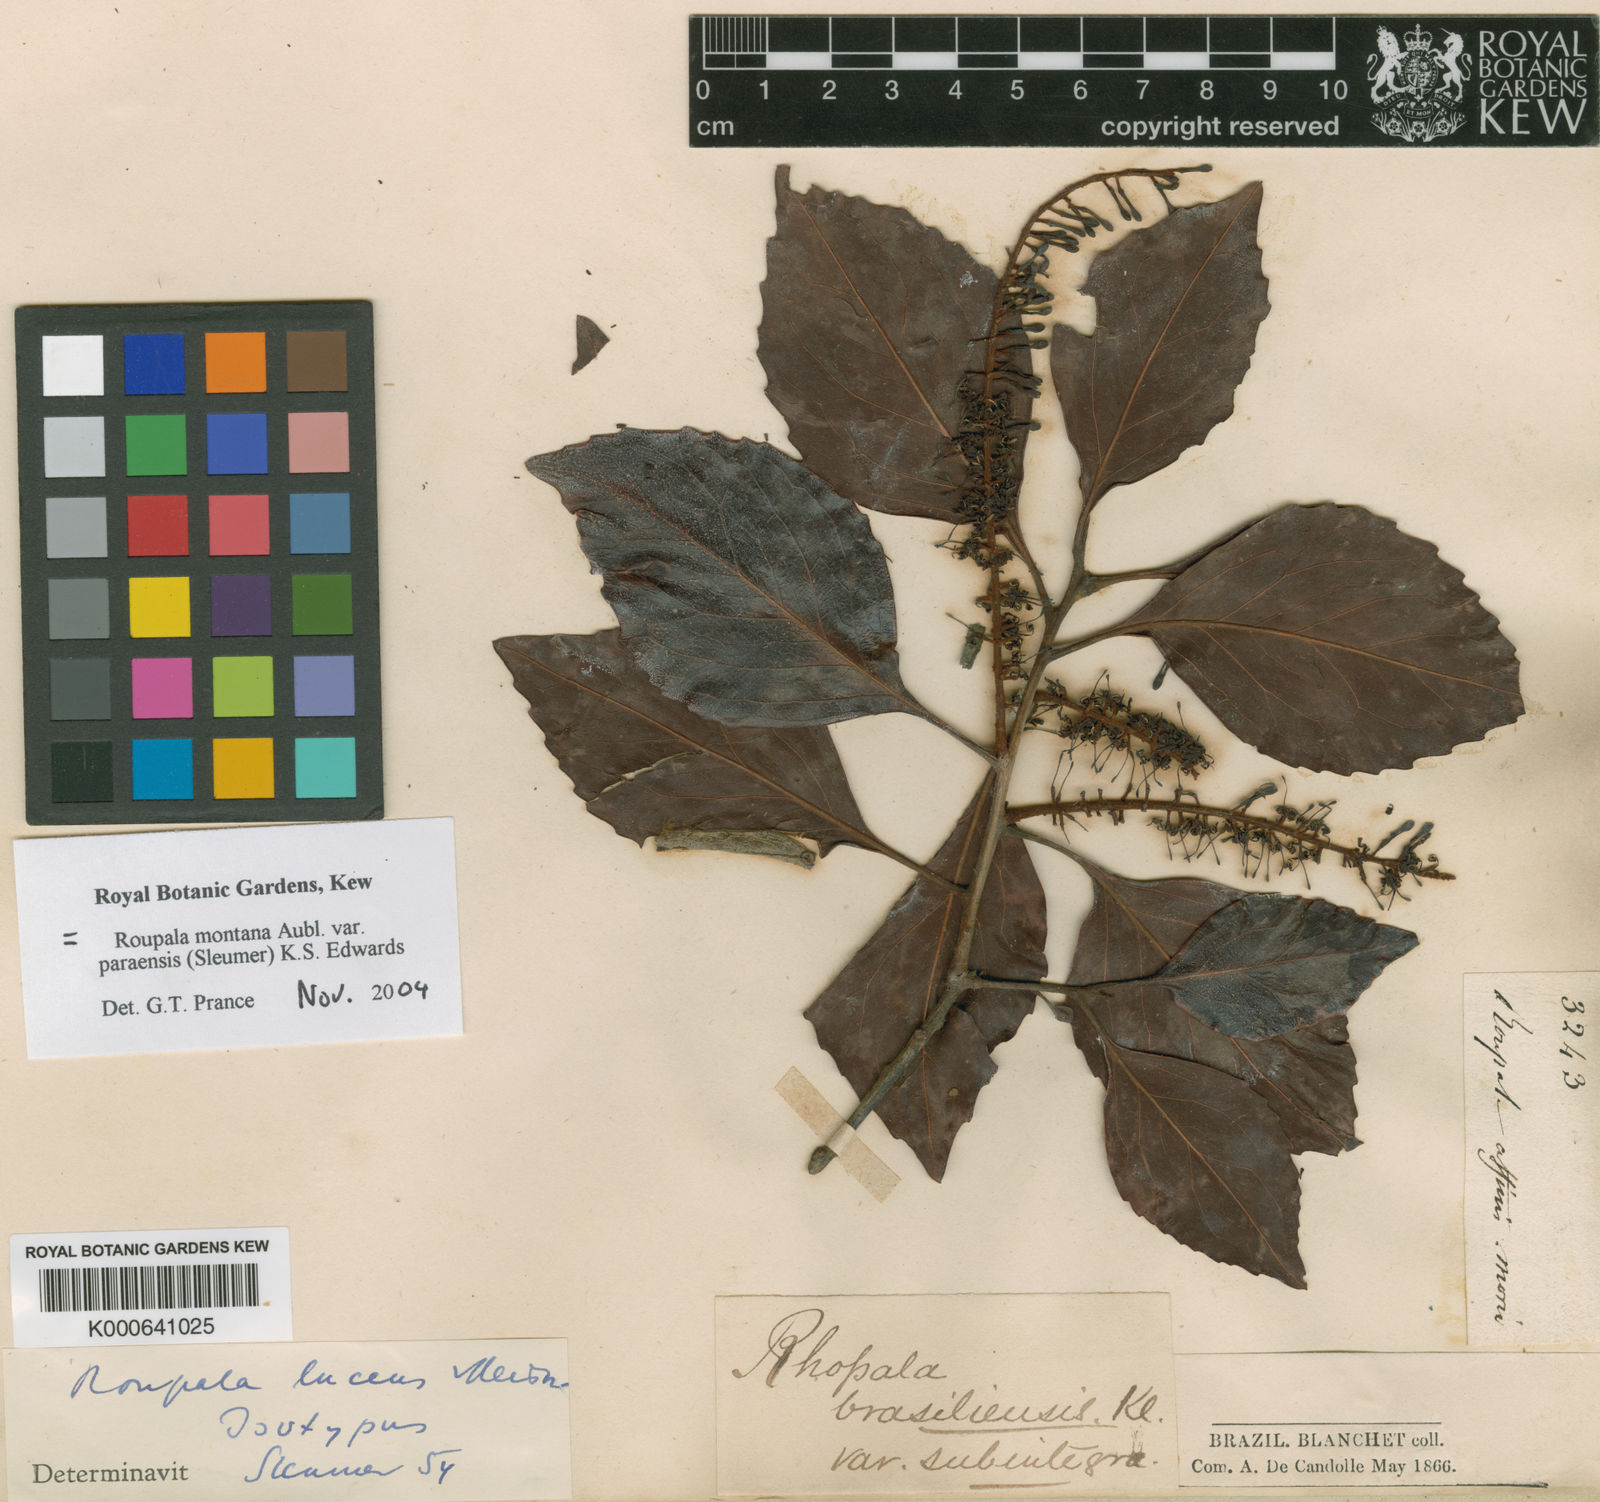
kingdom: Plantae
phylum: Tracheophyta
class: Magnoliopsida
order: Proteales
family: Proteaceae
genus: Roupala
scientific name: Roupala montana
